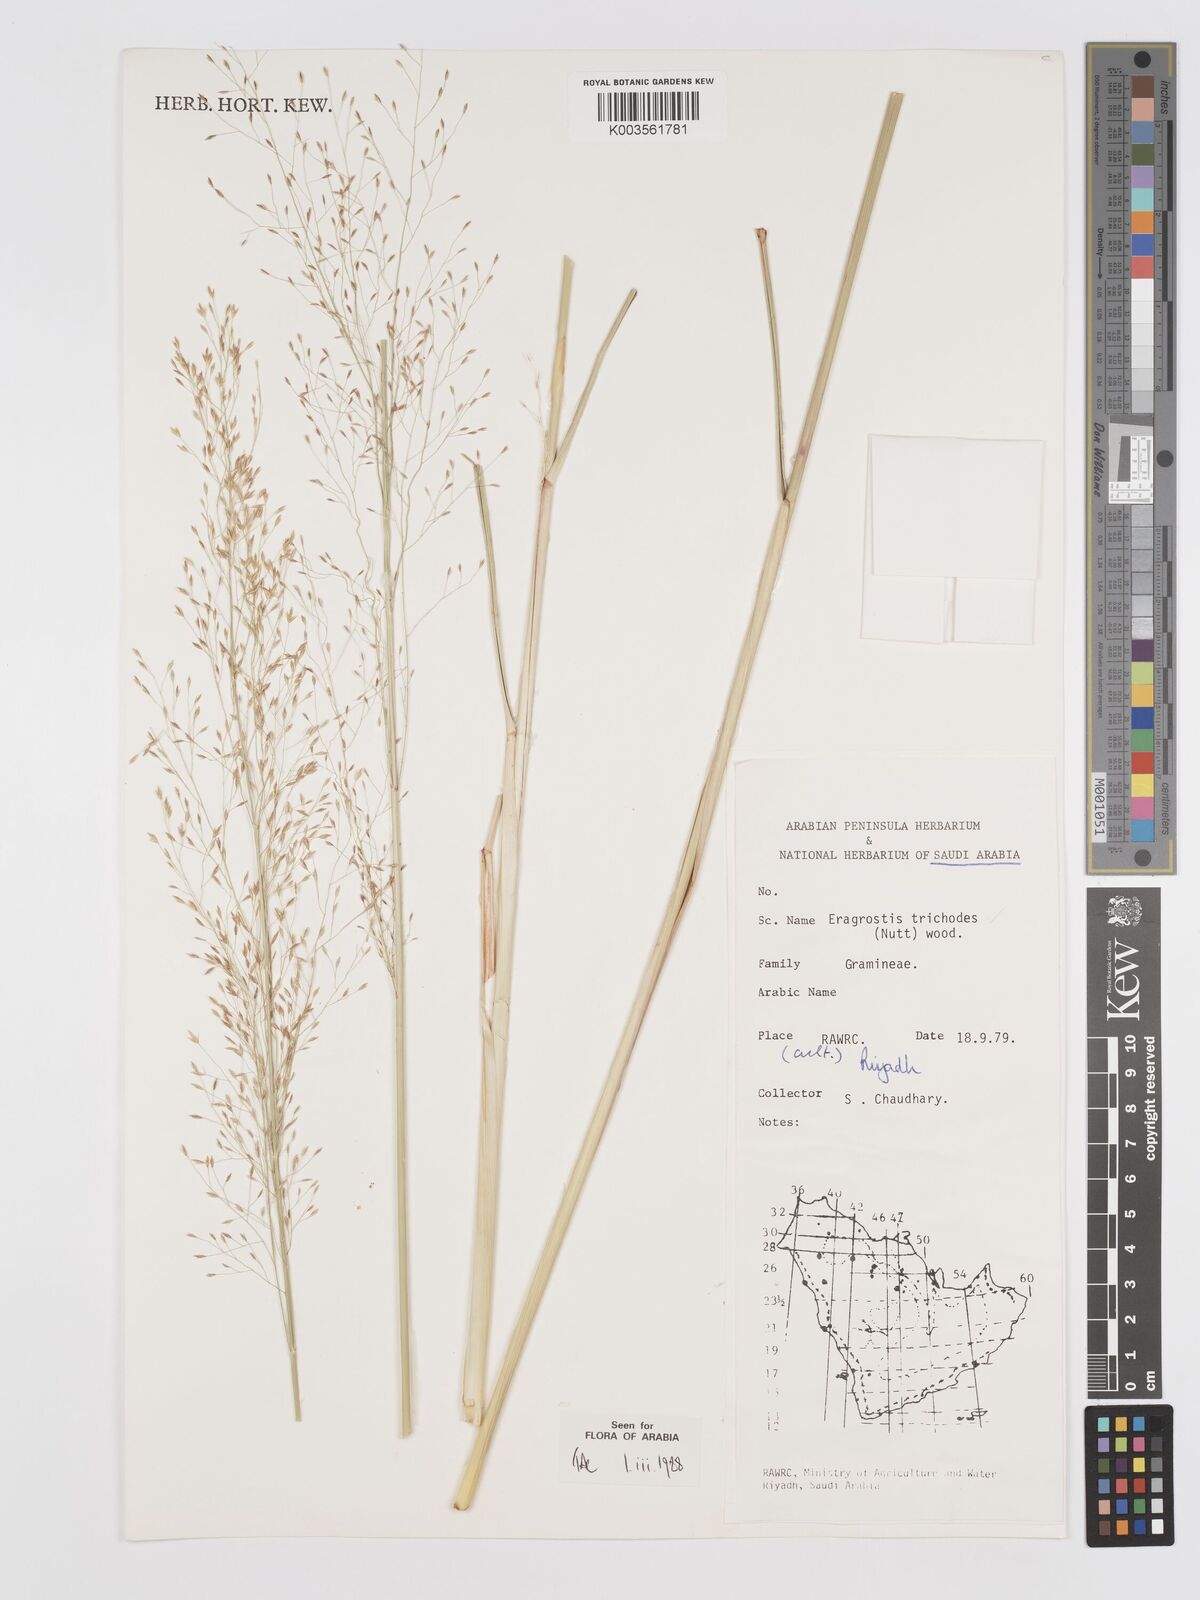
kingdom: Plantae
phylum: Tracheophyta
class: Liliopsida
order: Poales
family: Poaceae
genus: Eragrostis
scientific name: Eragrostis trichodes
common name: Sand love grass
